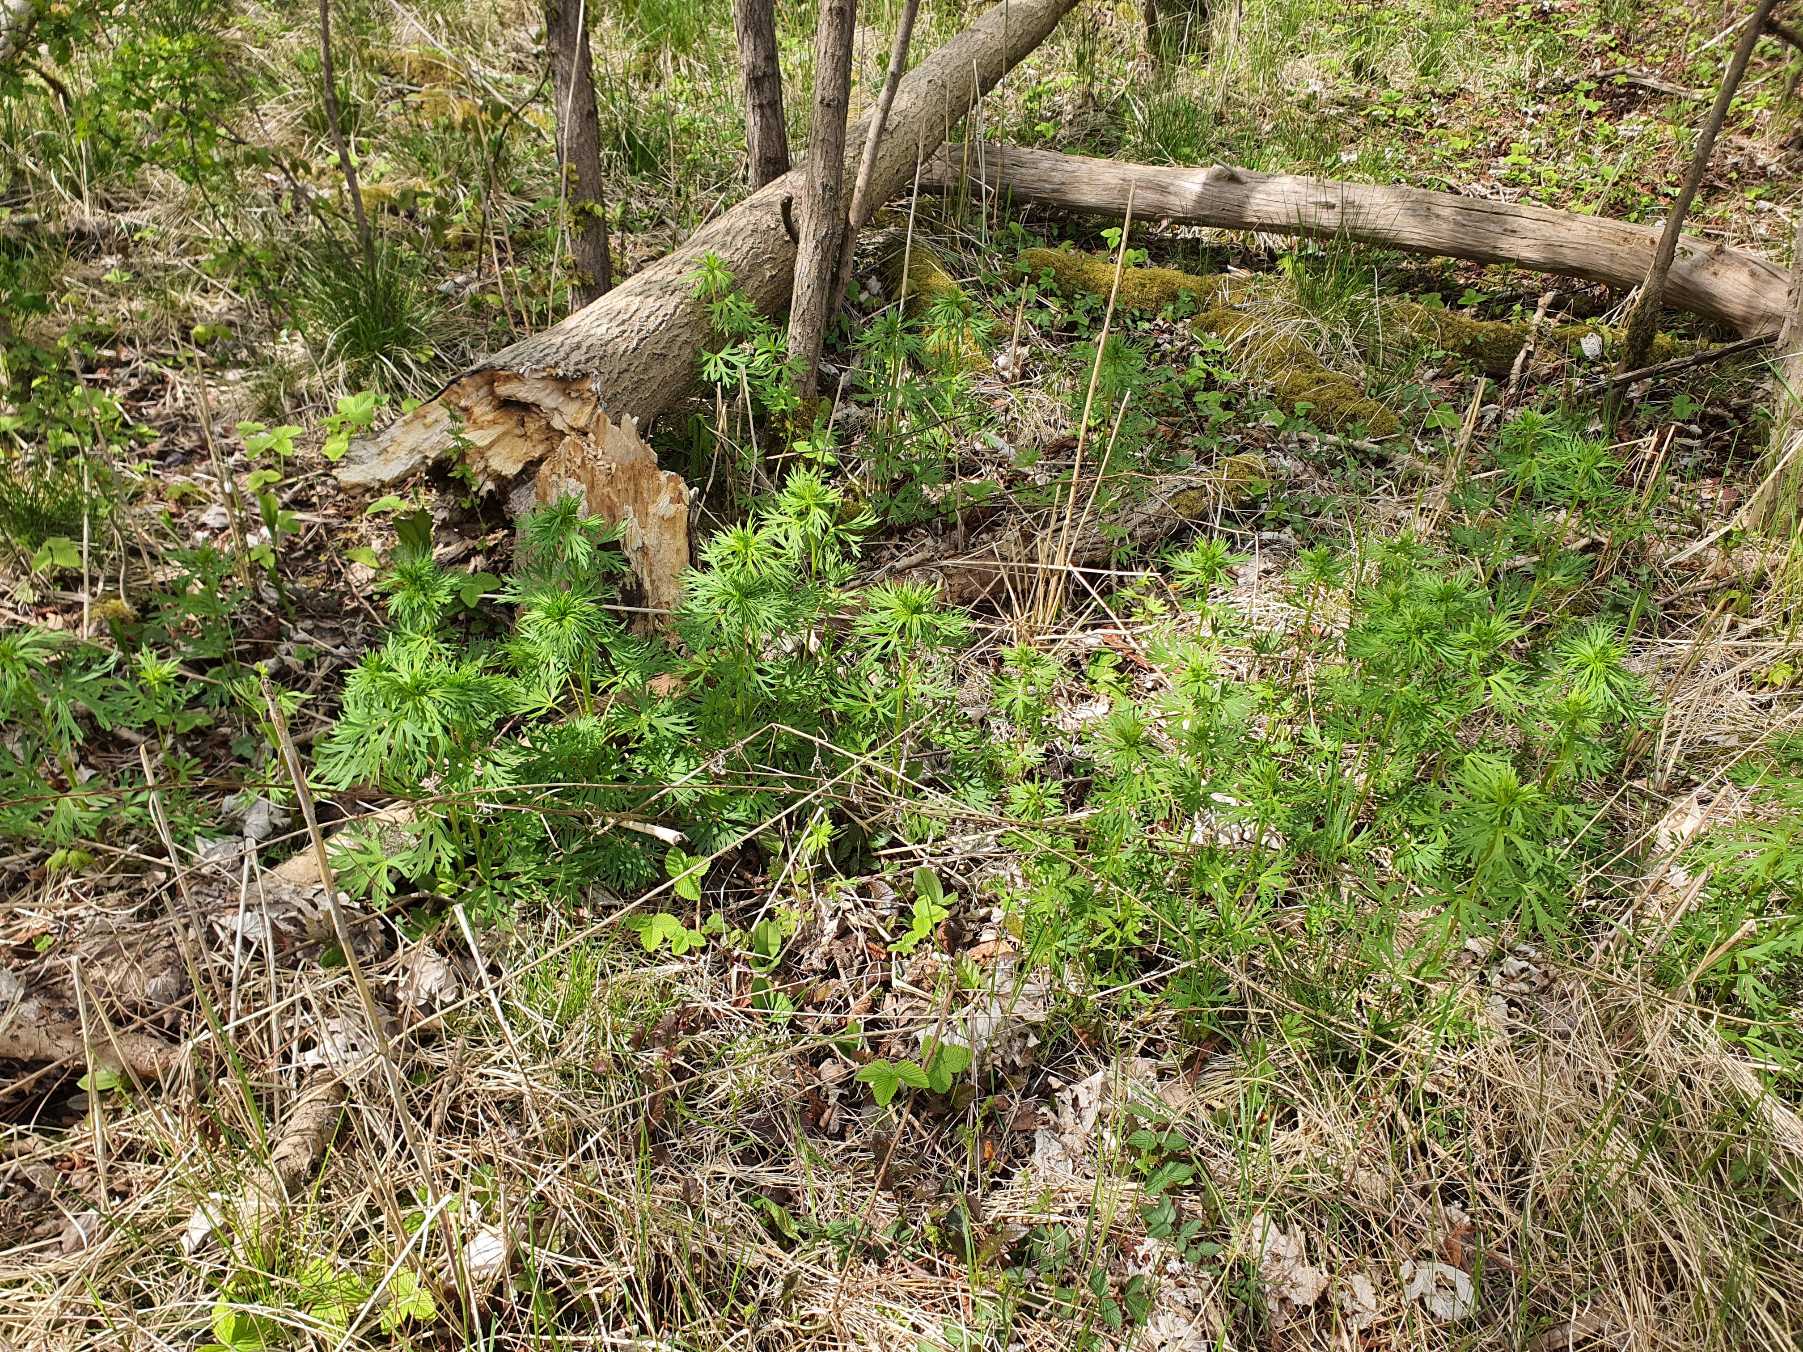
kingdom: Plantae
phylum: Tracheophyta
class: Magnoliopsida
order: Ranunculales
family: Ranunculaceae
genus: Aconitum
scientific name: Aconitum cammarum
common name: Have-stormhat
